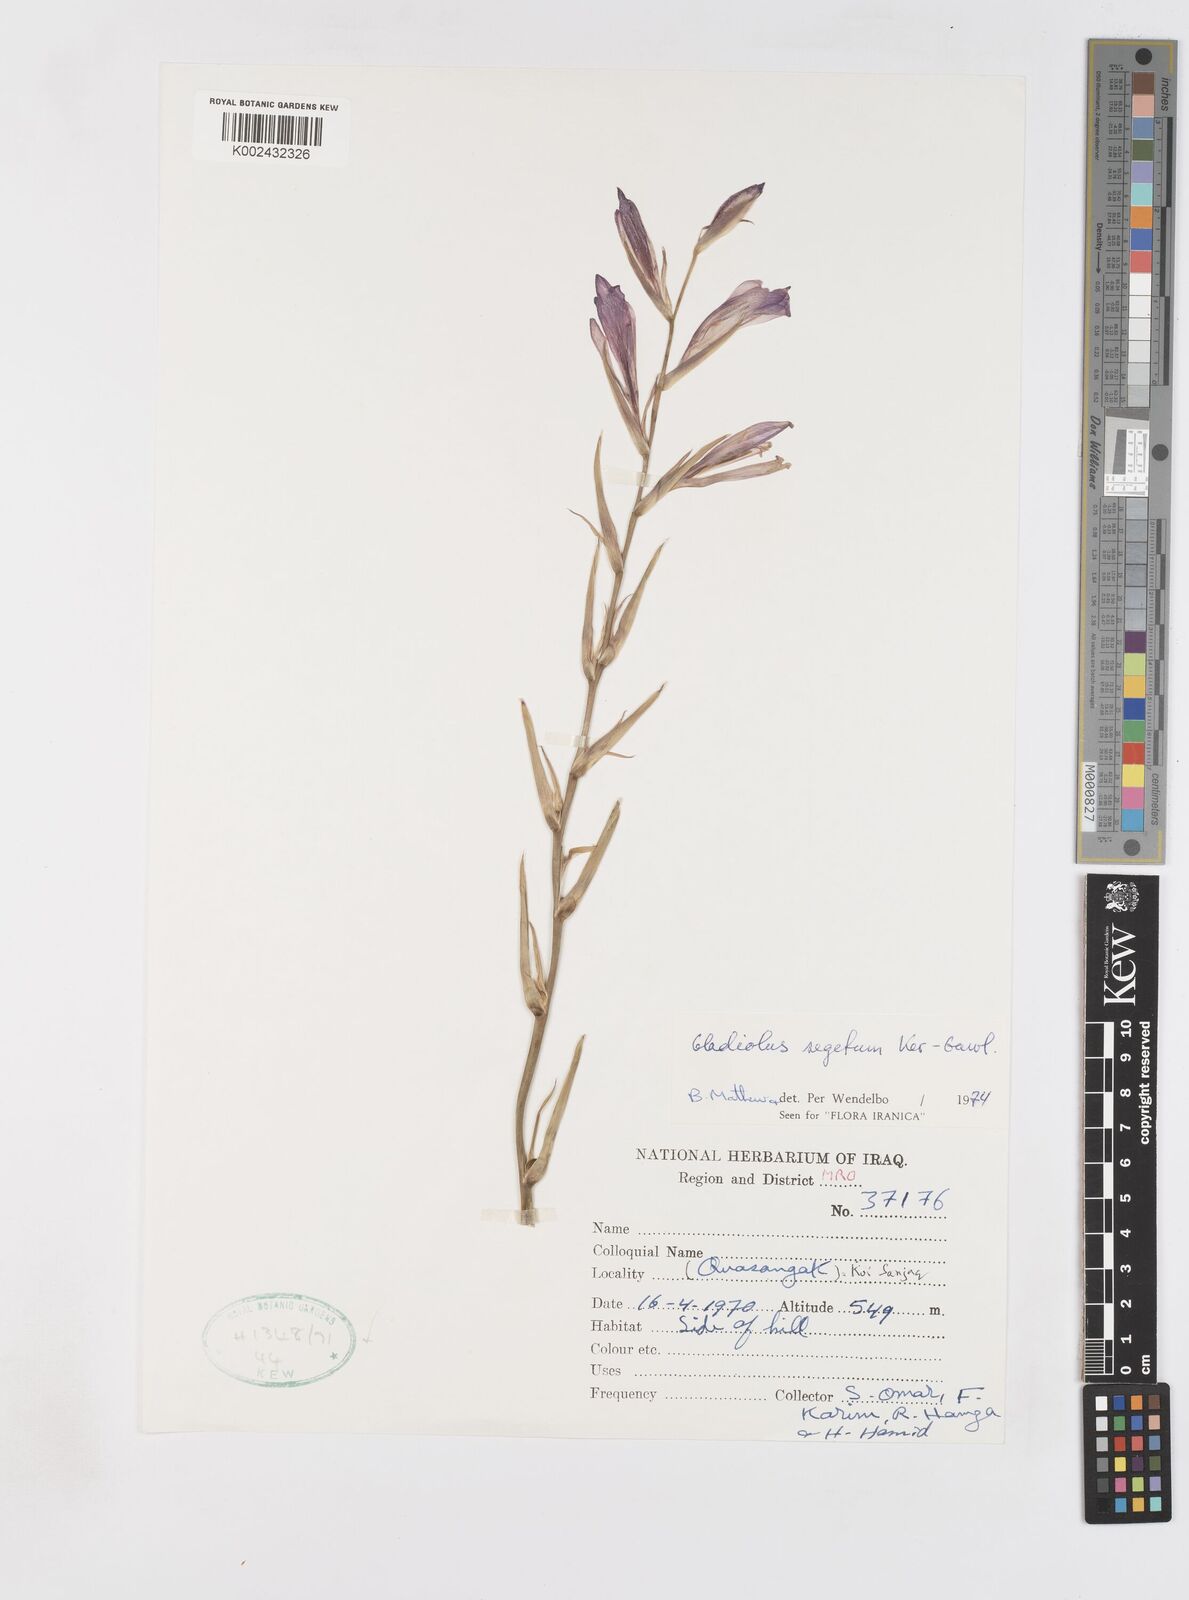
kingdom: Plantae
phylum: Tracheophyta
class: Liliopsida
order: Asparagales
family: Iridaceae
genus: Gladiolus
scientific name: Gladiolus italicus
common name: Field gladiolus
